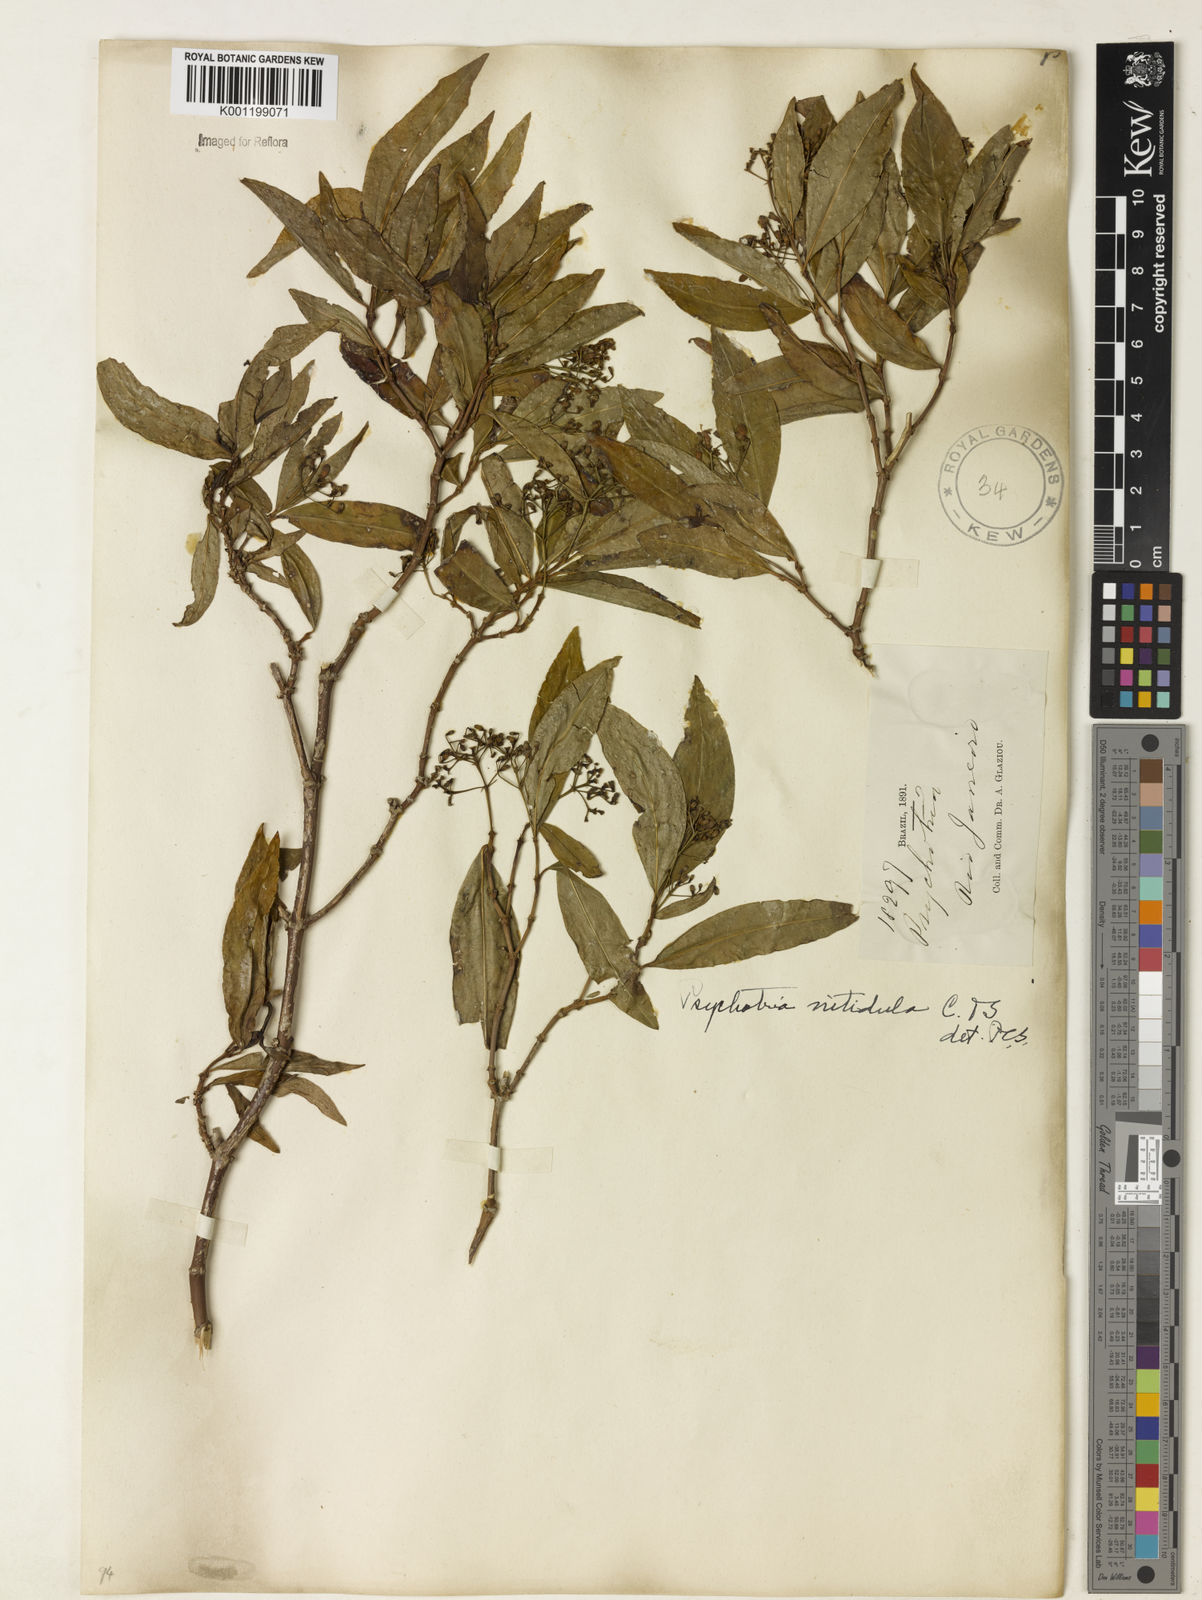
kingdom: Plantae
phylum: Tracheophyta
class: Magnoliopsida
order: Gentianales
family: Rubiaceae
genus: Psychotria
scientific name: Psychotria leiocarpa
